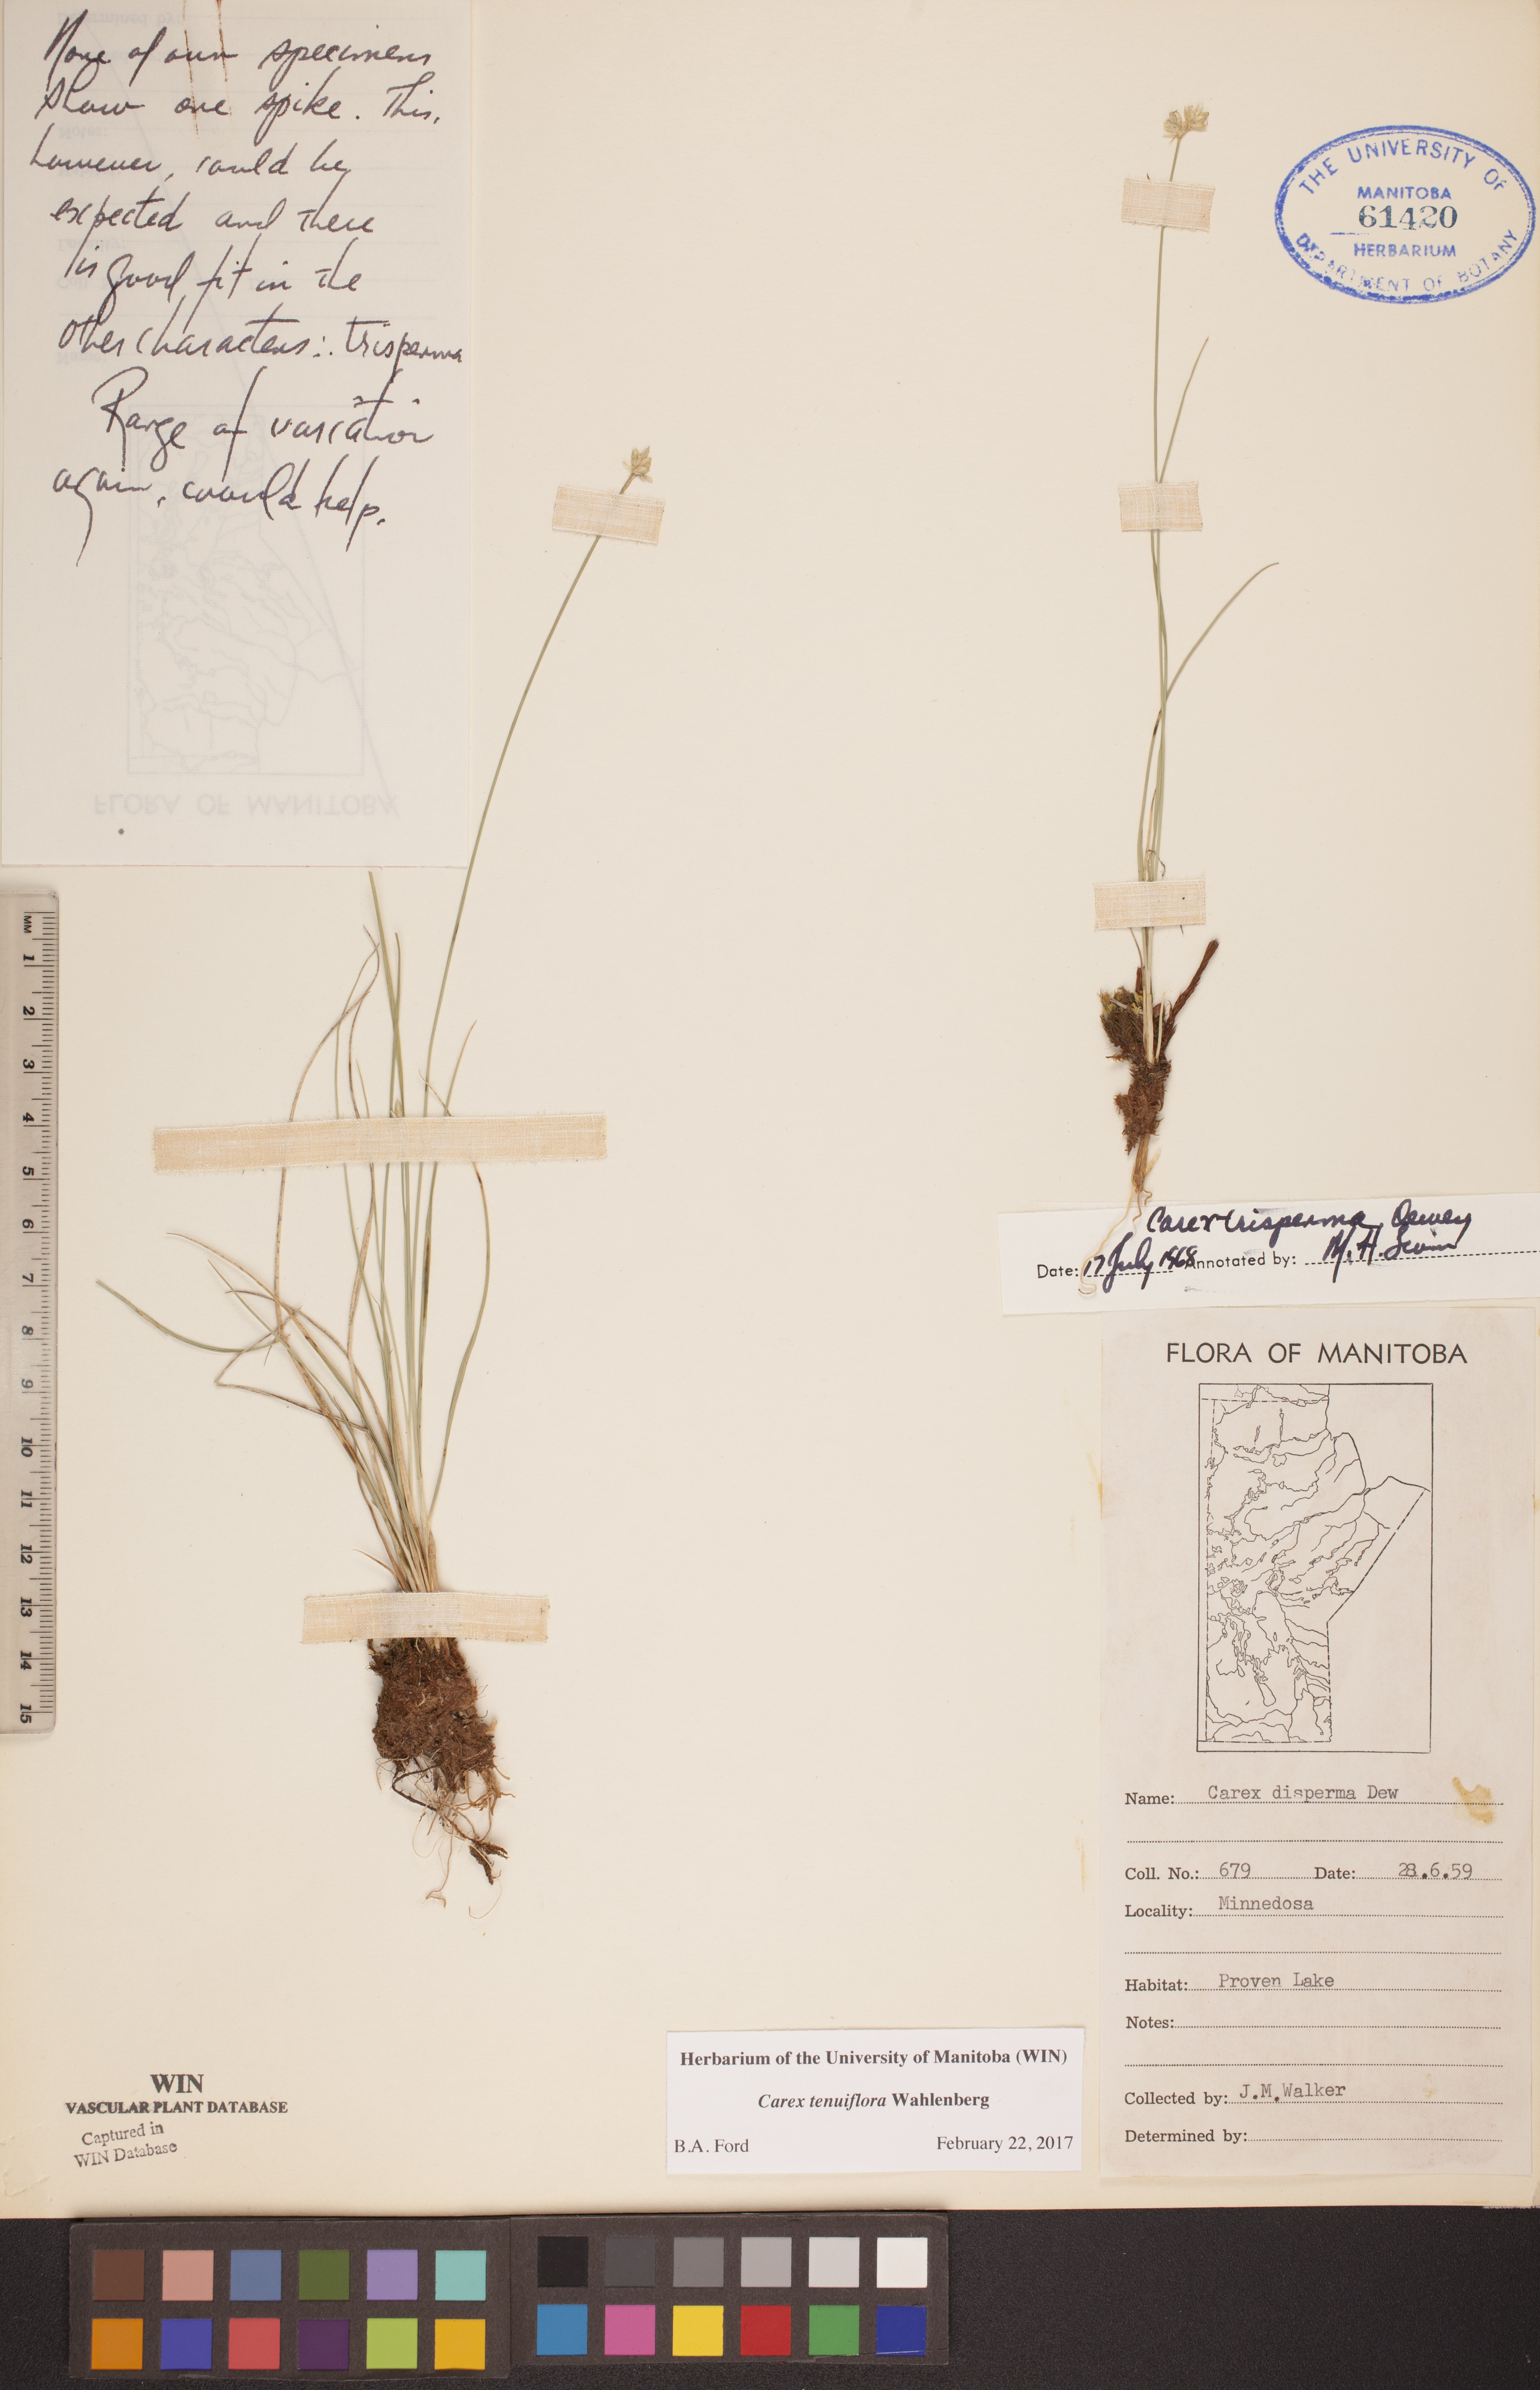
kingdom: Plantae
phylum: Tracheophyta
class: Liliopsida
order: Poales
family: Cyperaceae
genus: Carex
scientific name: Carex tenuiflora
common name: Sparse-flowered sedge
